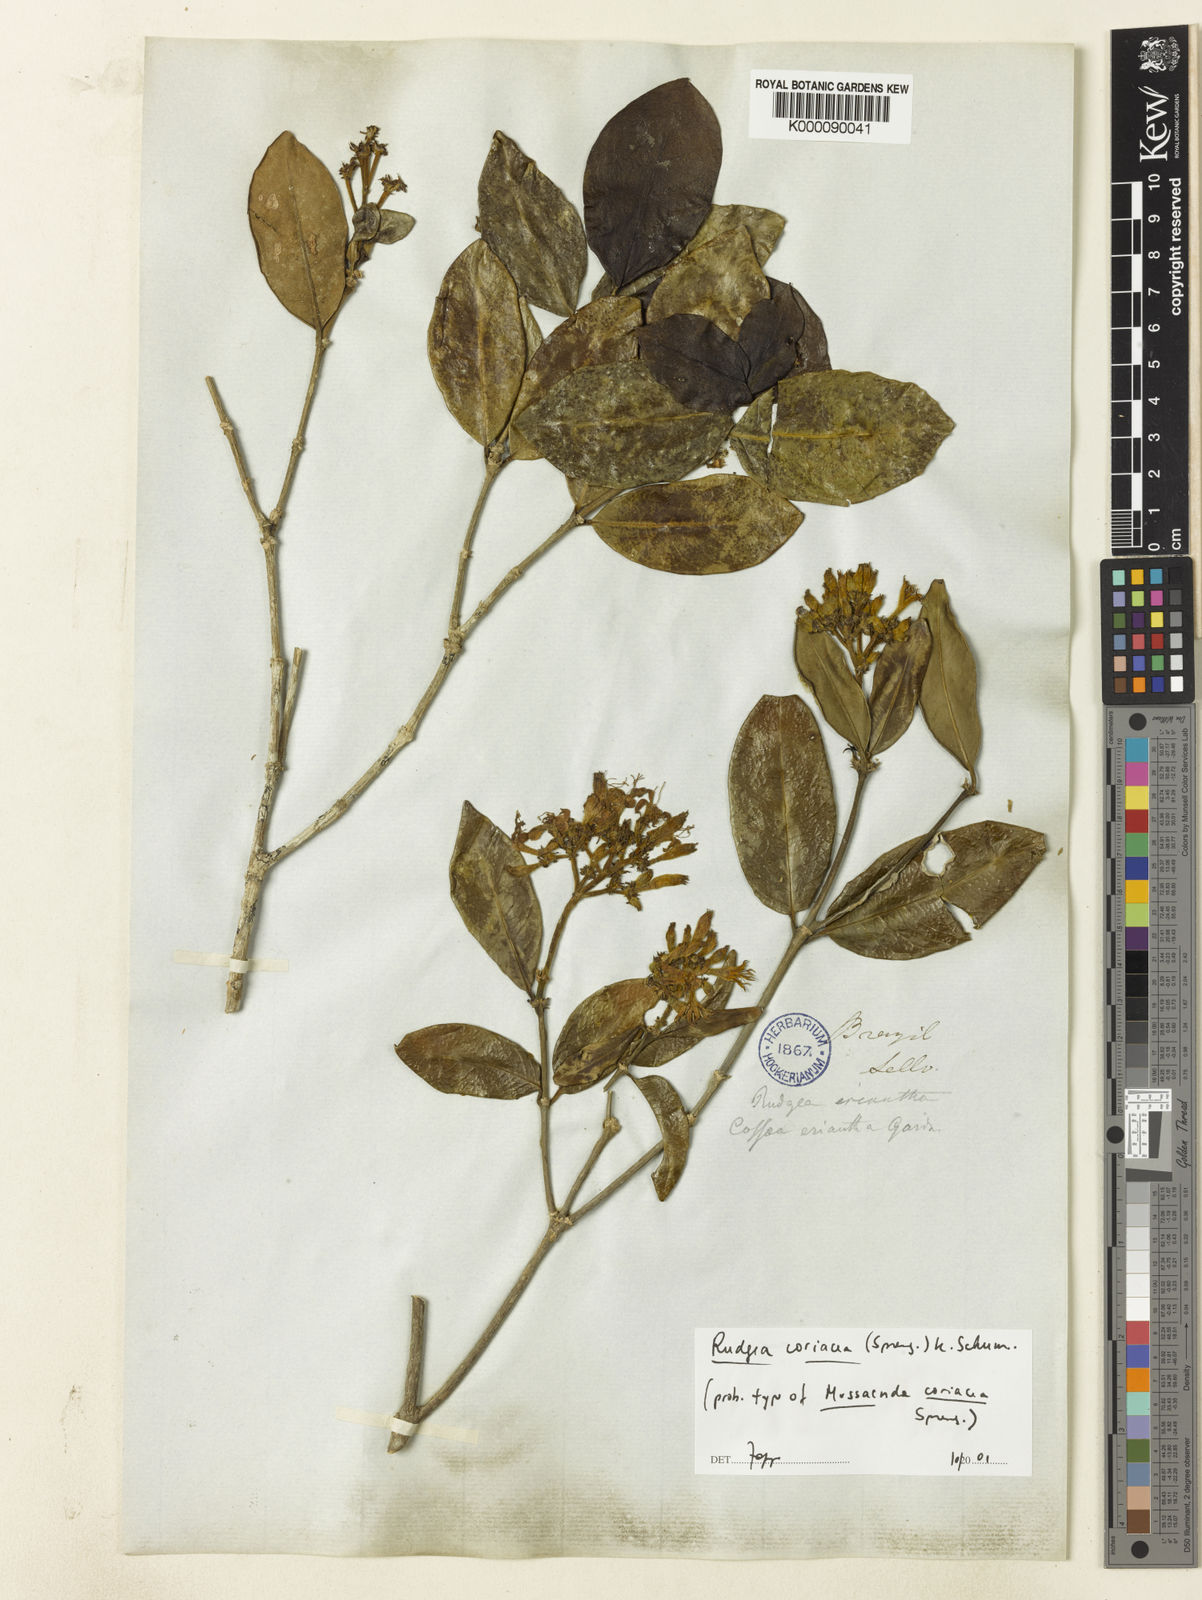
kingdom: Plantae
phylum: Tracheophyta
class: Magnoliopsida
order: Gentianales
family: Rubiaceae
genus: Rudgea
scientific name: Rudgea coriacea
